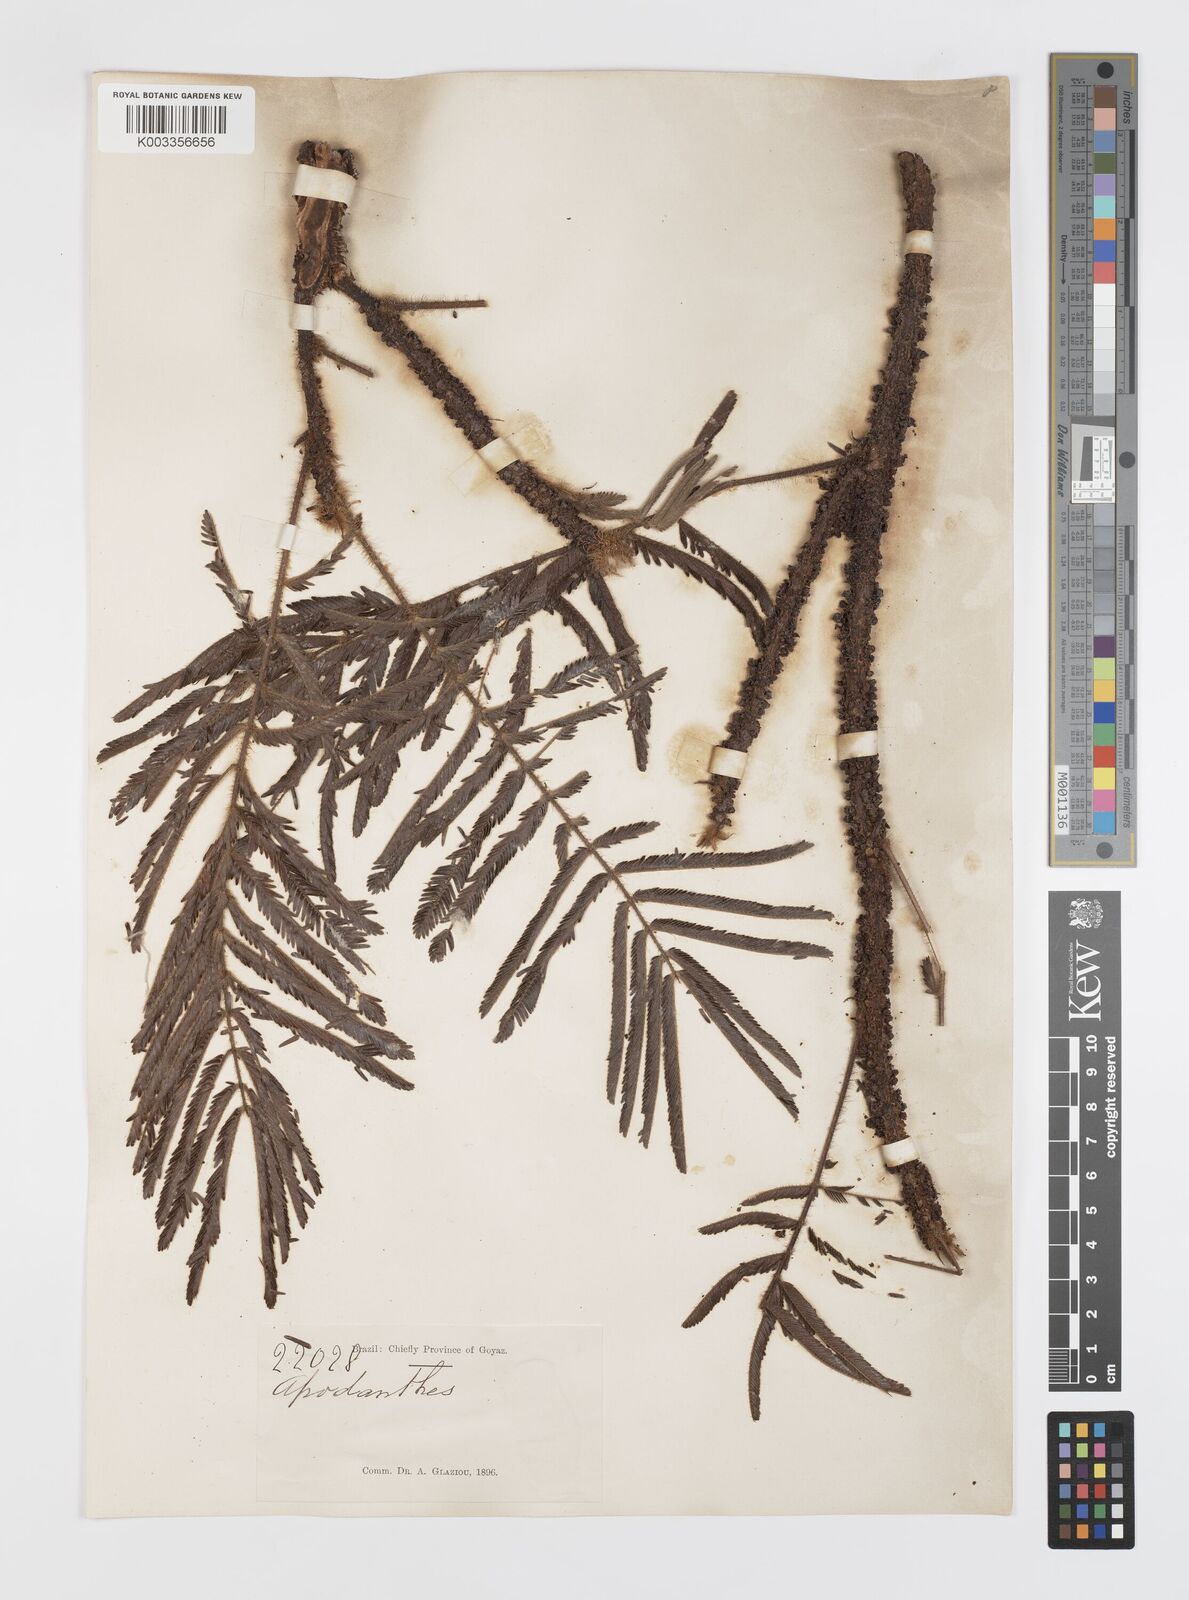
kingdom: Plantae
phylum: Tracheophyta
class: Magnoliopsida
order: Cucurbitales
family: Apodanthaceae
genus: Pilostyles
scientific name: Pilostyles blanchetii
